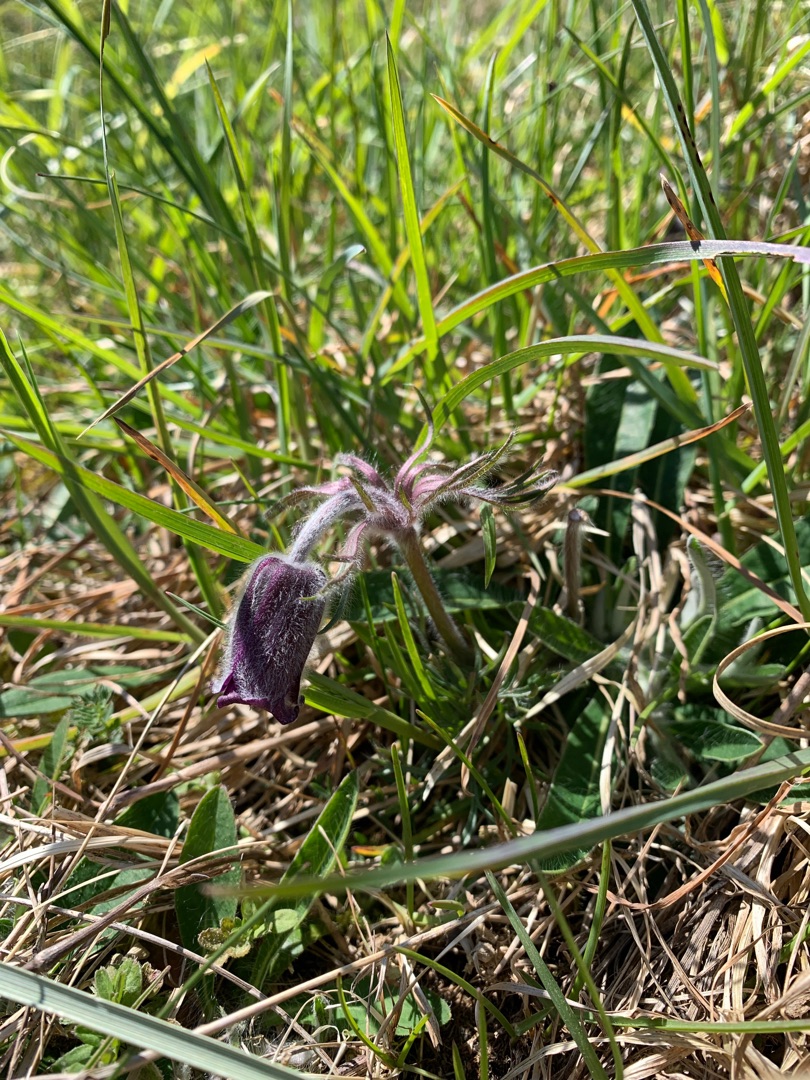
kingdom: Plantae
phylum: Tracheophyta
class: Magnoliopsida
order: Ranunculales
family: Ranunculaceae
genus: Pulsatilla
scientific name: Pulsatilla pratensis
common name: Nikkende kobjælde
